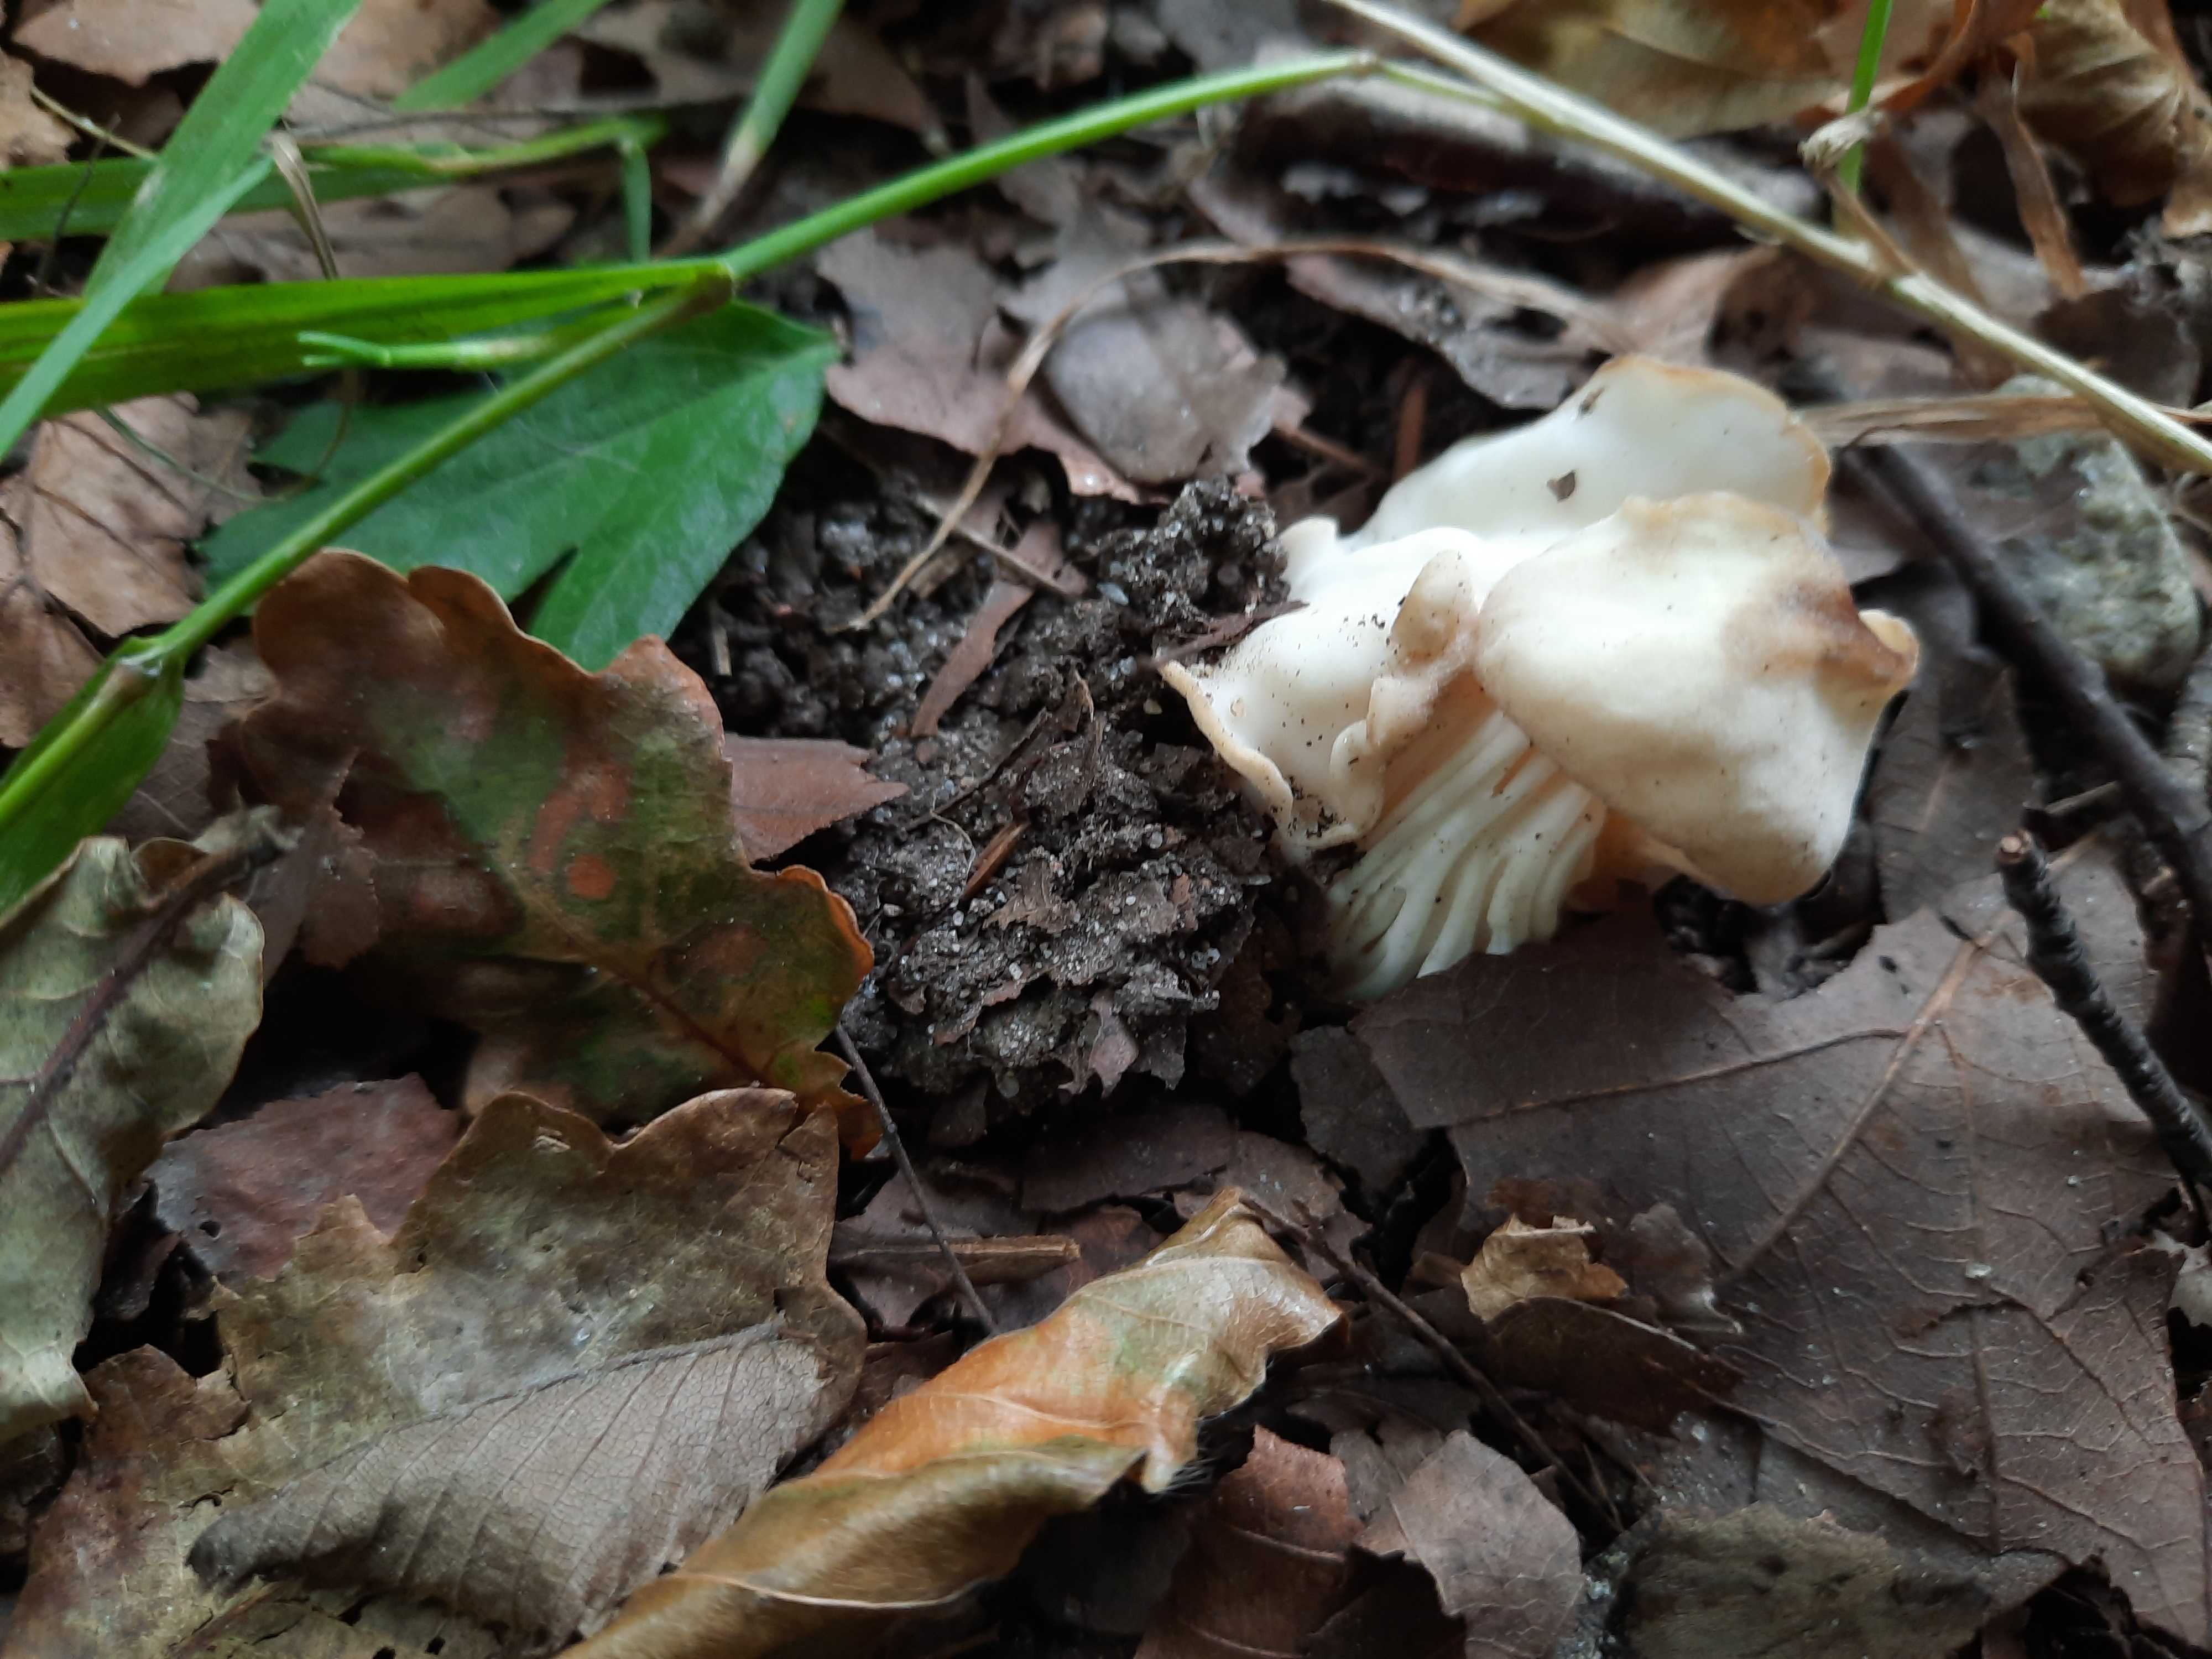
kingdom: Fungi
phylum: Ascomycota
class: Pezizomycetes
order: Pezizales
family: Helvellaceae
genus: Helvella
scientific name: Helvella crispa
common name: kruset foldhat
